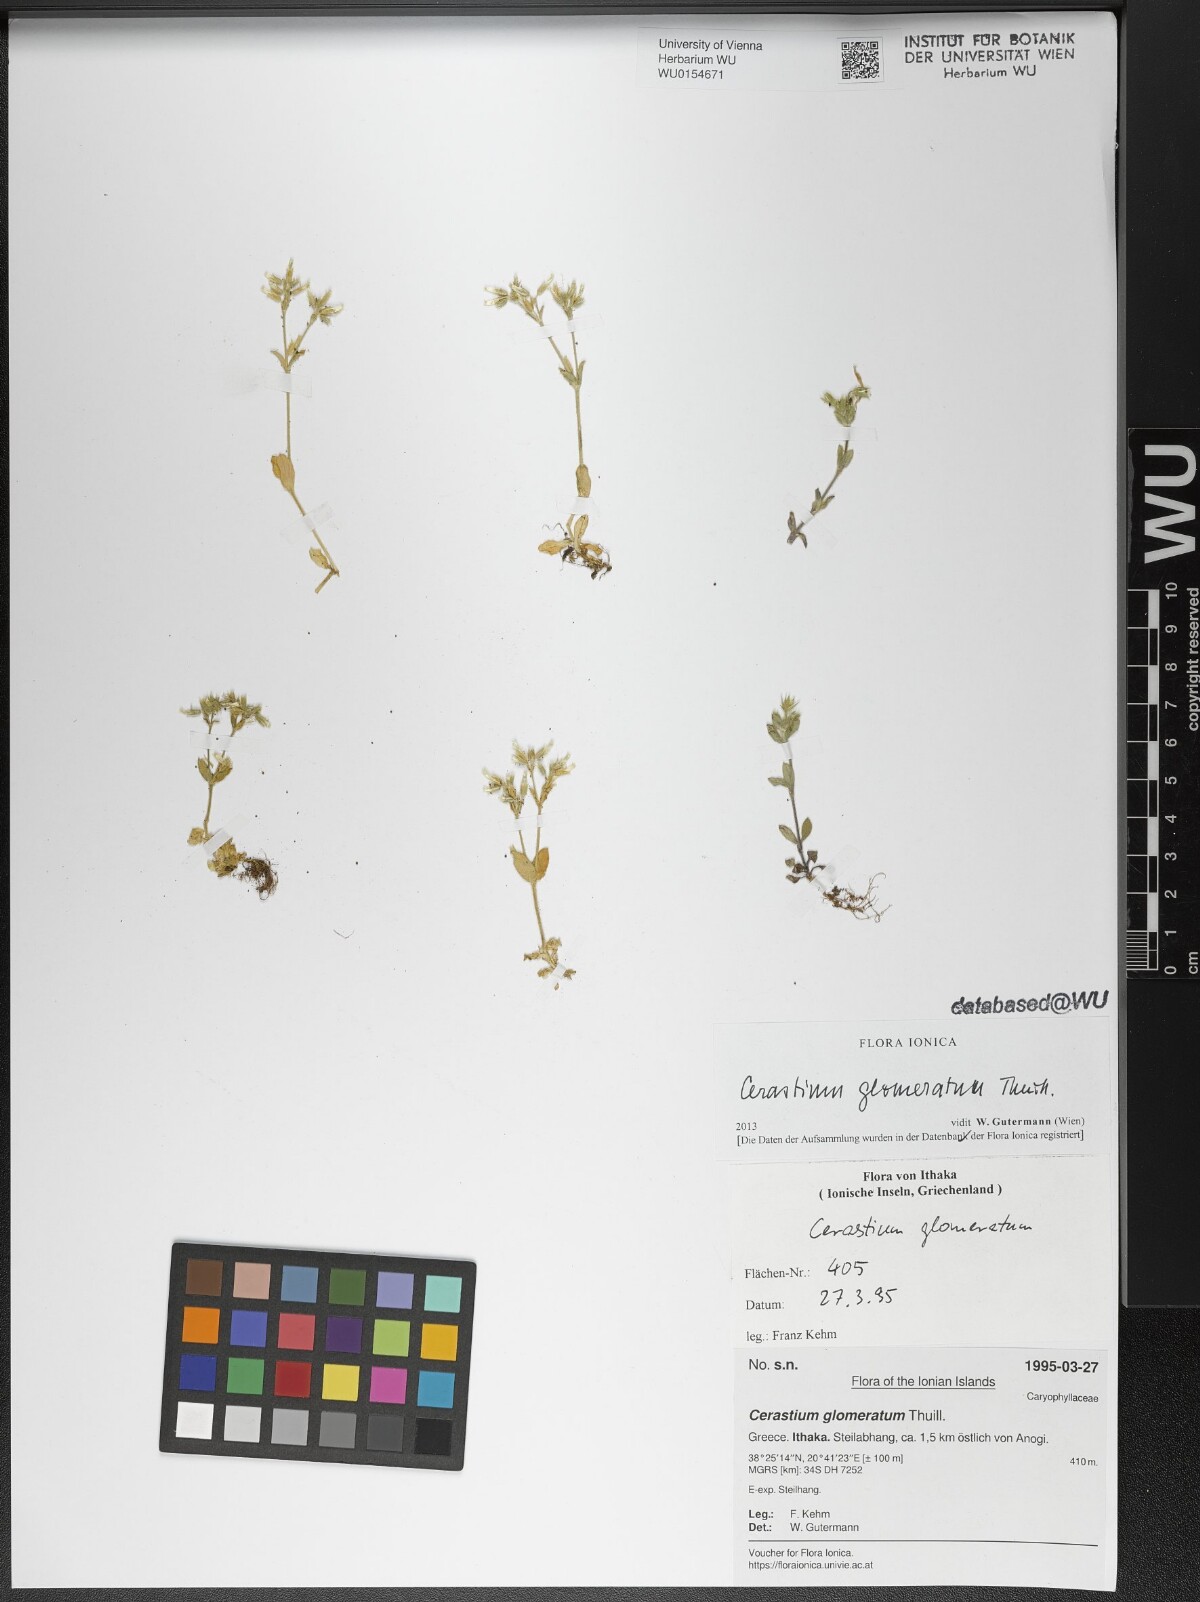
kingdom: Plantae
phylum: Tracheophyta
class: Magnoliopsida
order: Caryophyllales
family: Caryophyllaceae
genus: Cerastium
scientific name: Cerastium glomeratum
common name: Sticky chickweed
